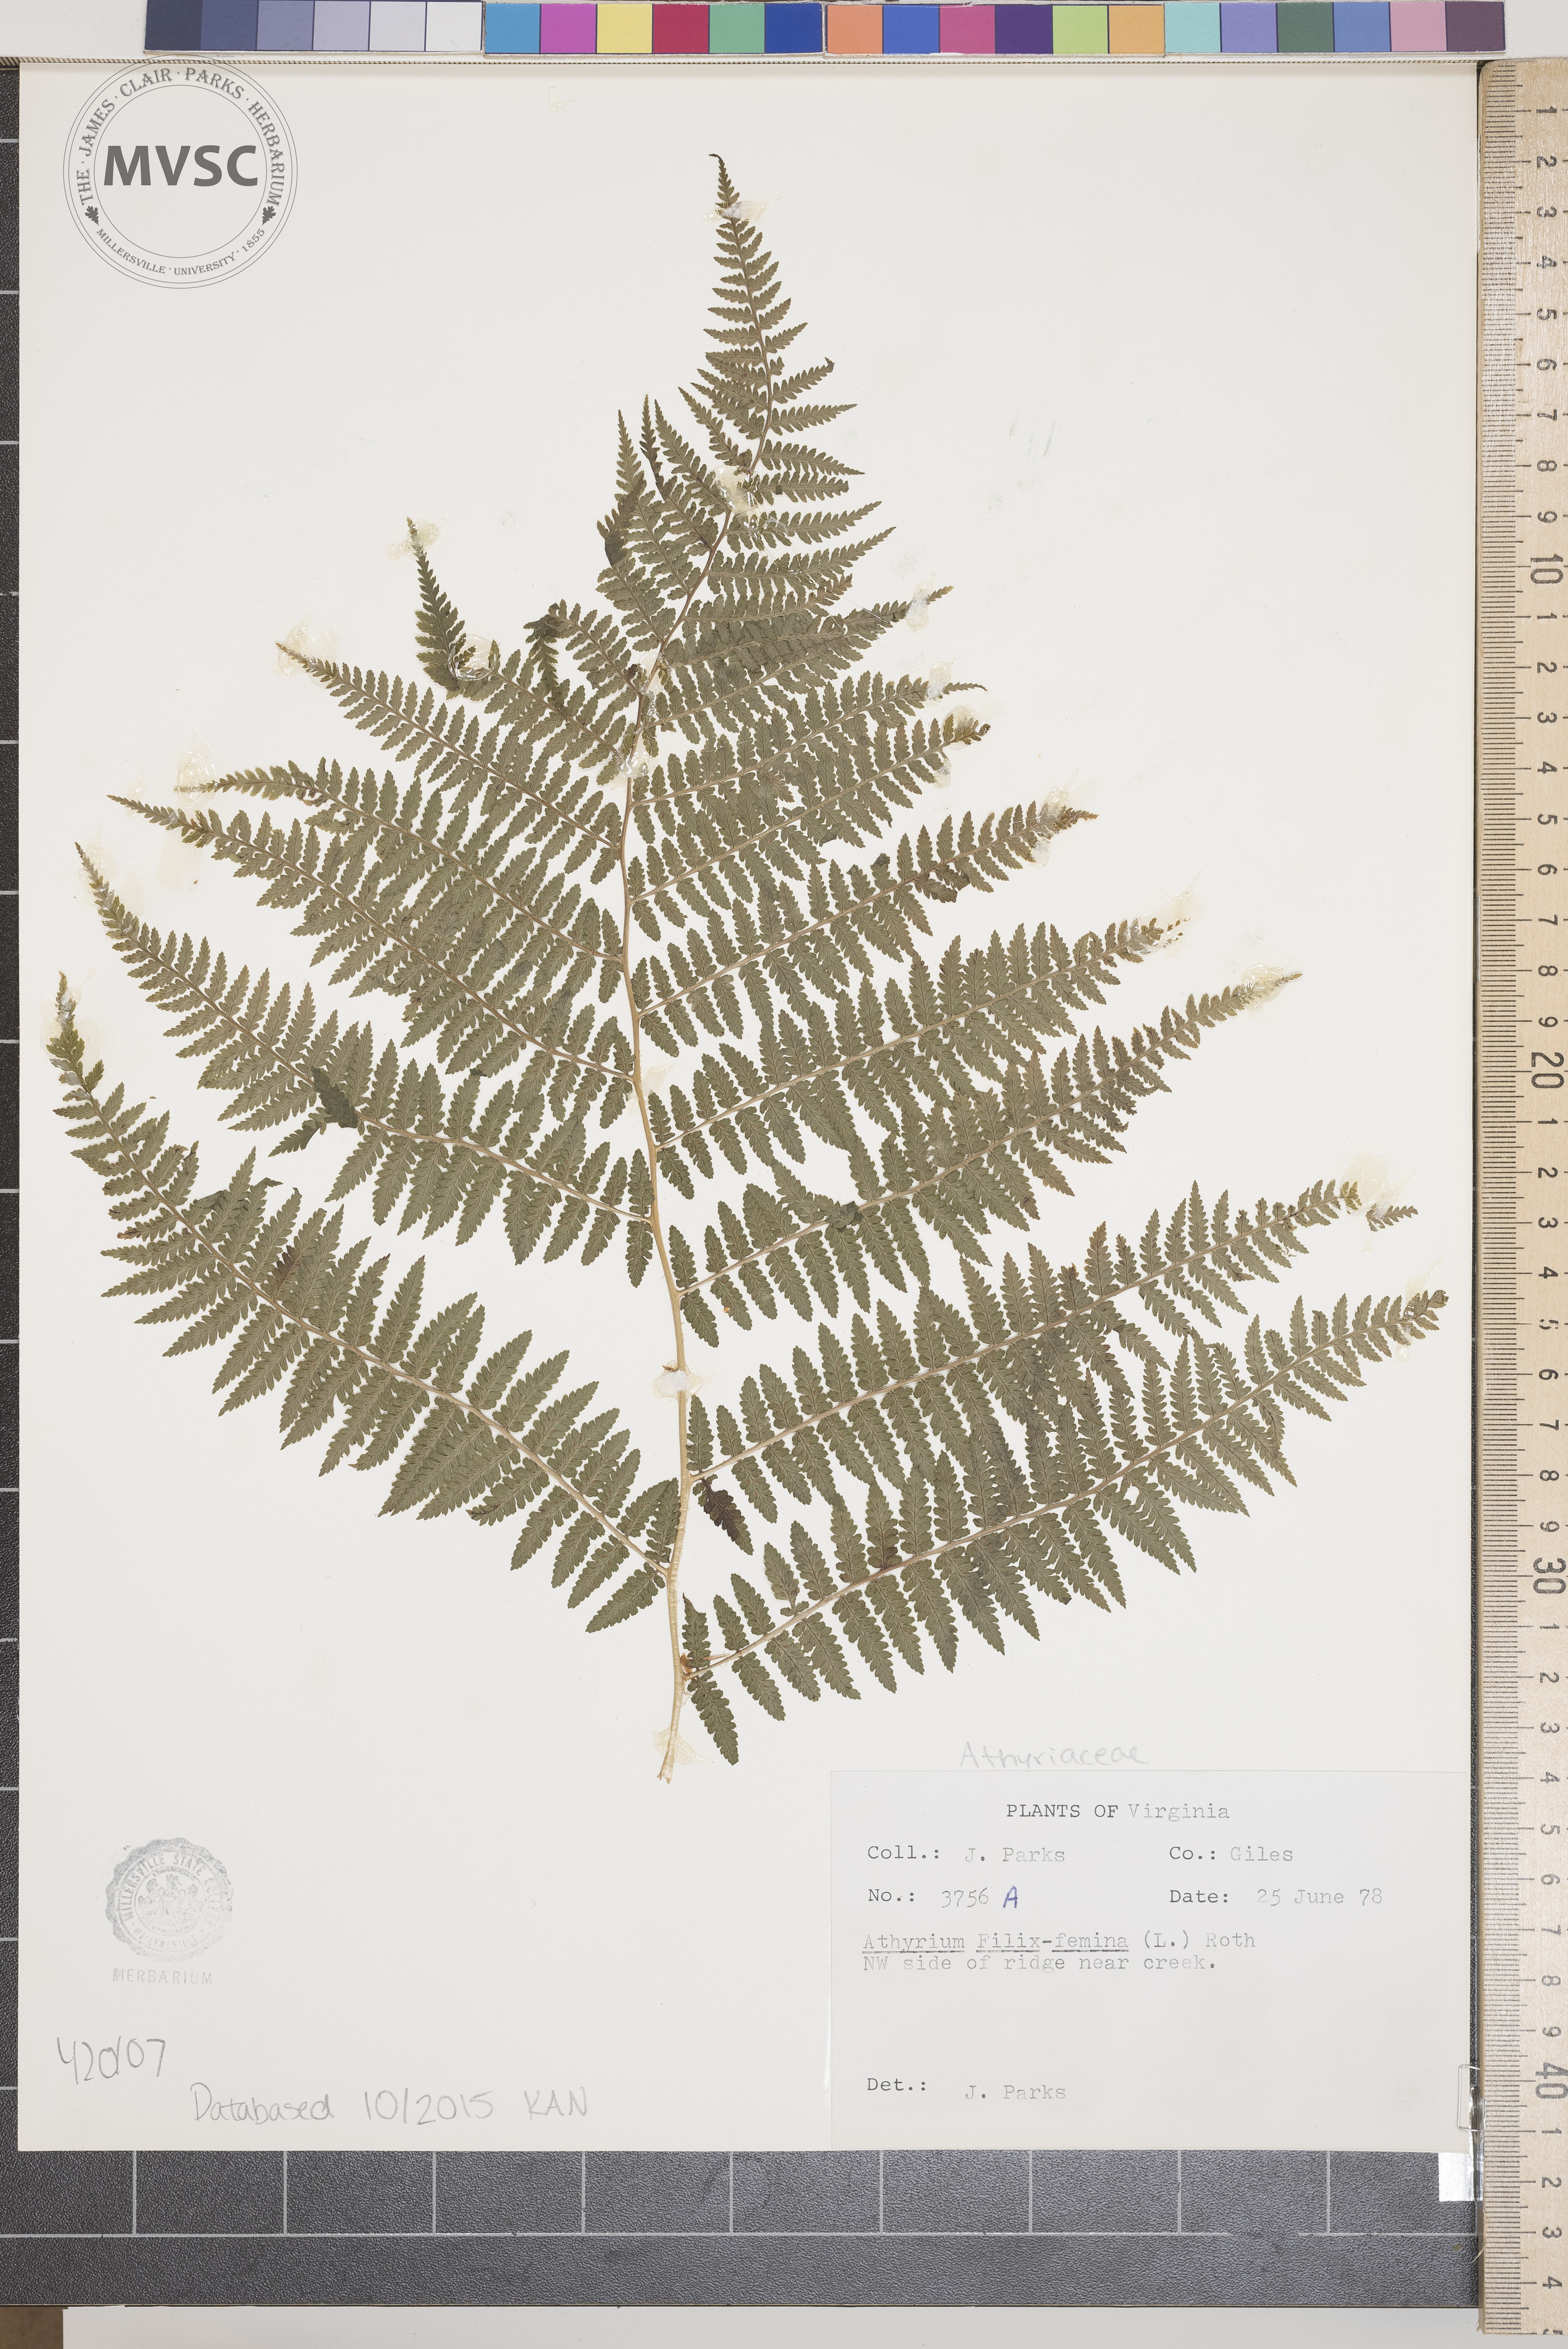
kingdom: Plantae
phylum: Tracheophyta
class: Polypodiopsida
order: Polypodiales
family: Athyriaceae
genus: Athyrium
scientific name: Athyrium filix-femina
